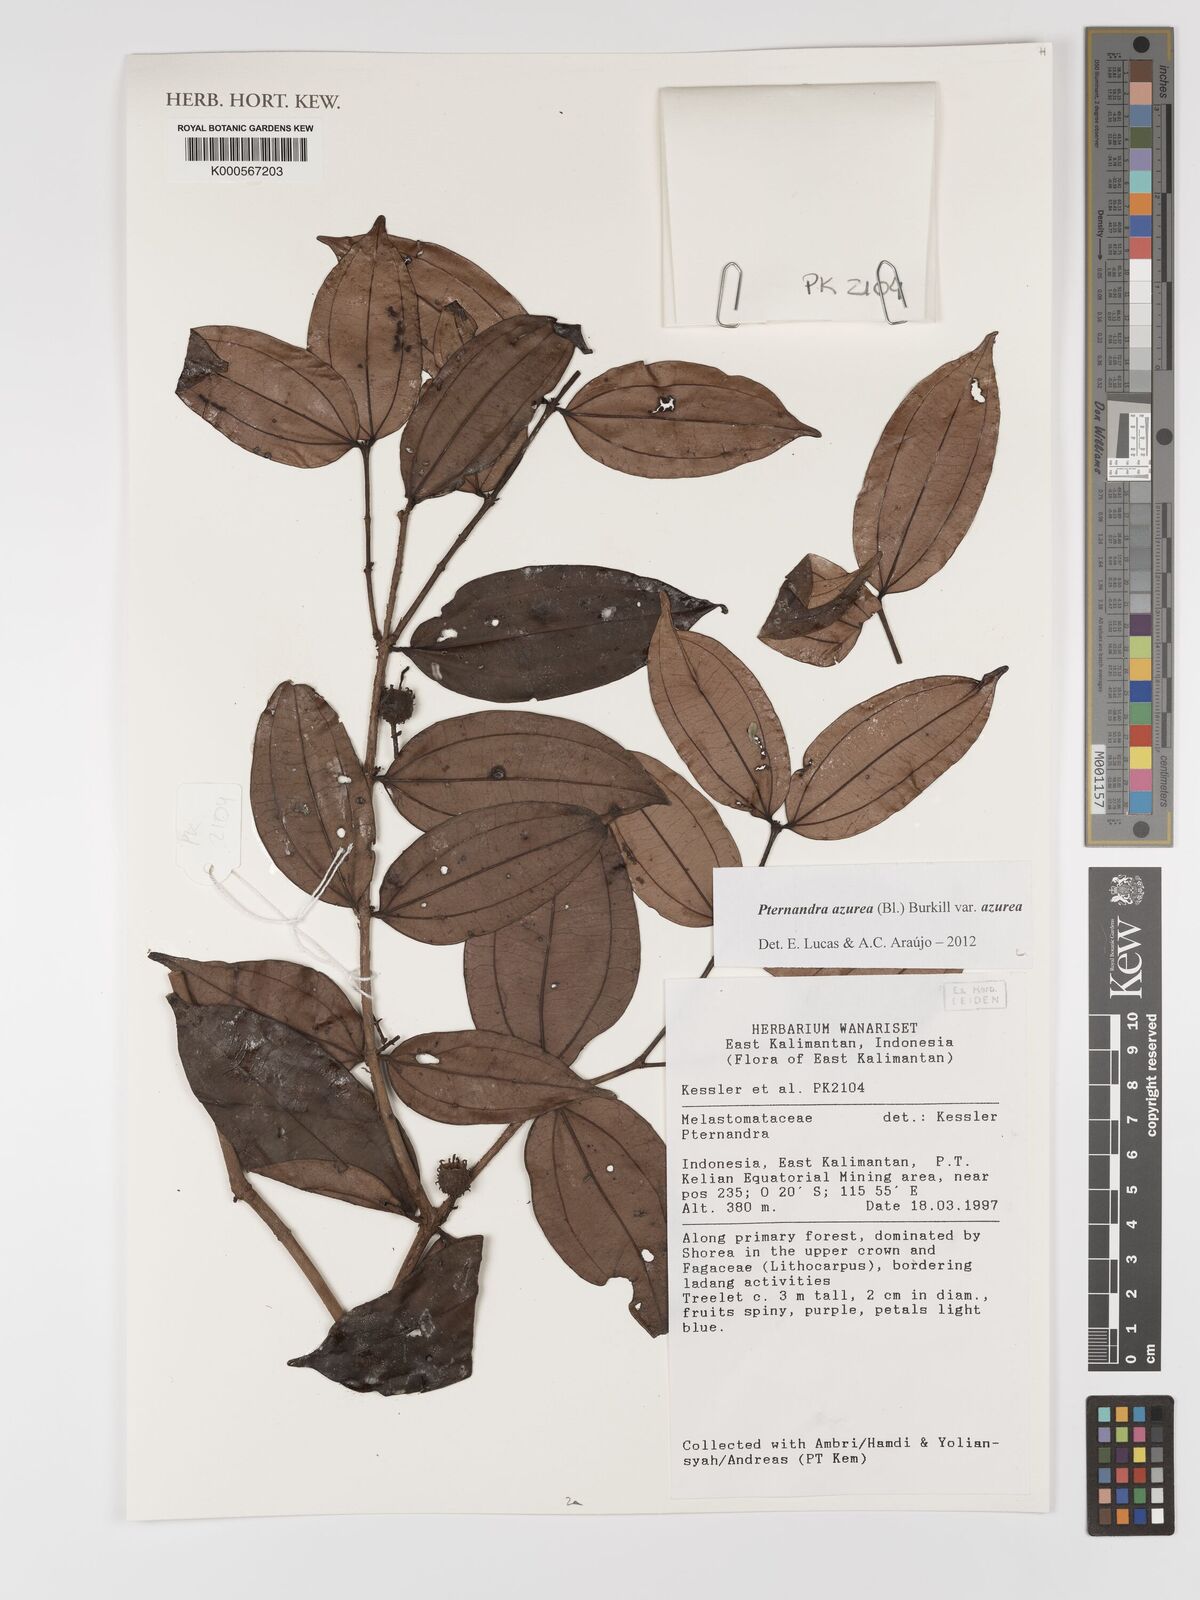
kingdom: Plantae
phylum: Tracheophyta
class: Magnoliopsida
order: Myrtales
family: Melastomataceae
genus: Pternandra
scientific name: Pternandra azurea
